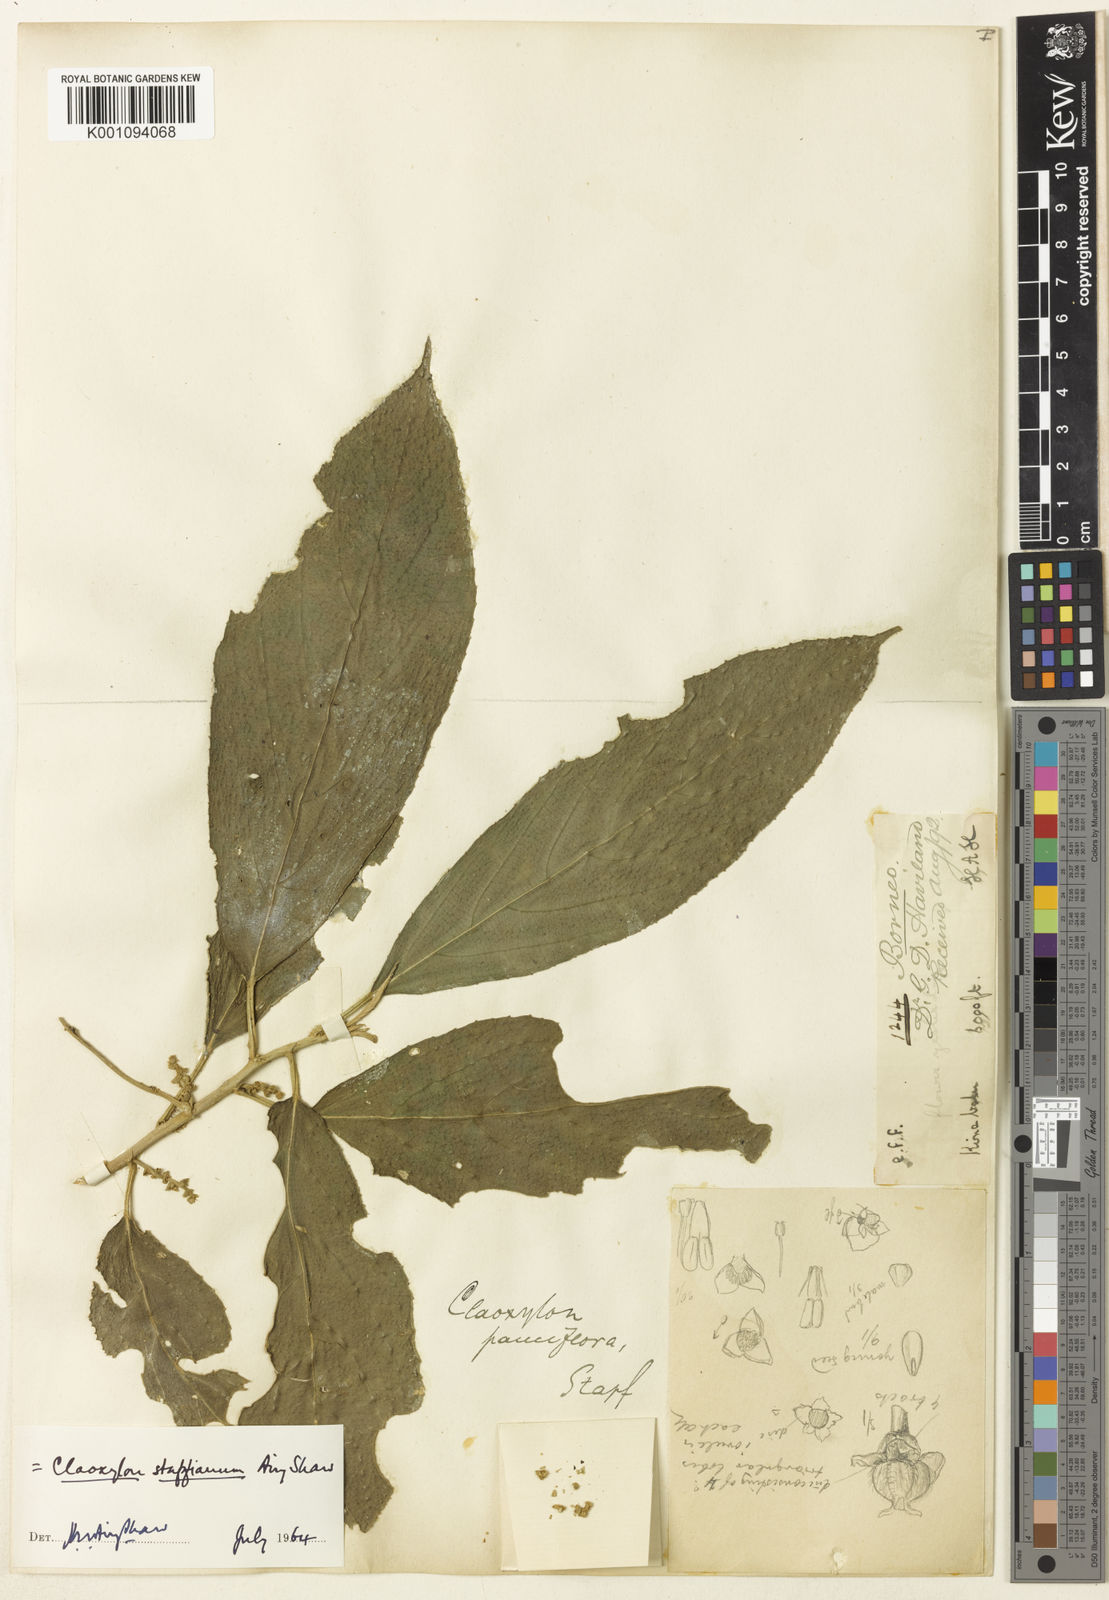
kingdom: Plantae
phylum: Tracheophyta
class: Magnoliopsida
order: Malpighiales
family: Euphorbiaceae
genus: Claoxylon
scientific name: Claoxylon stapfianum
